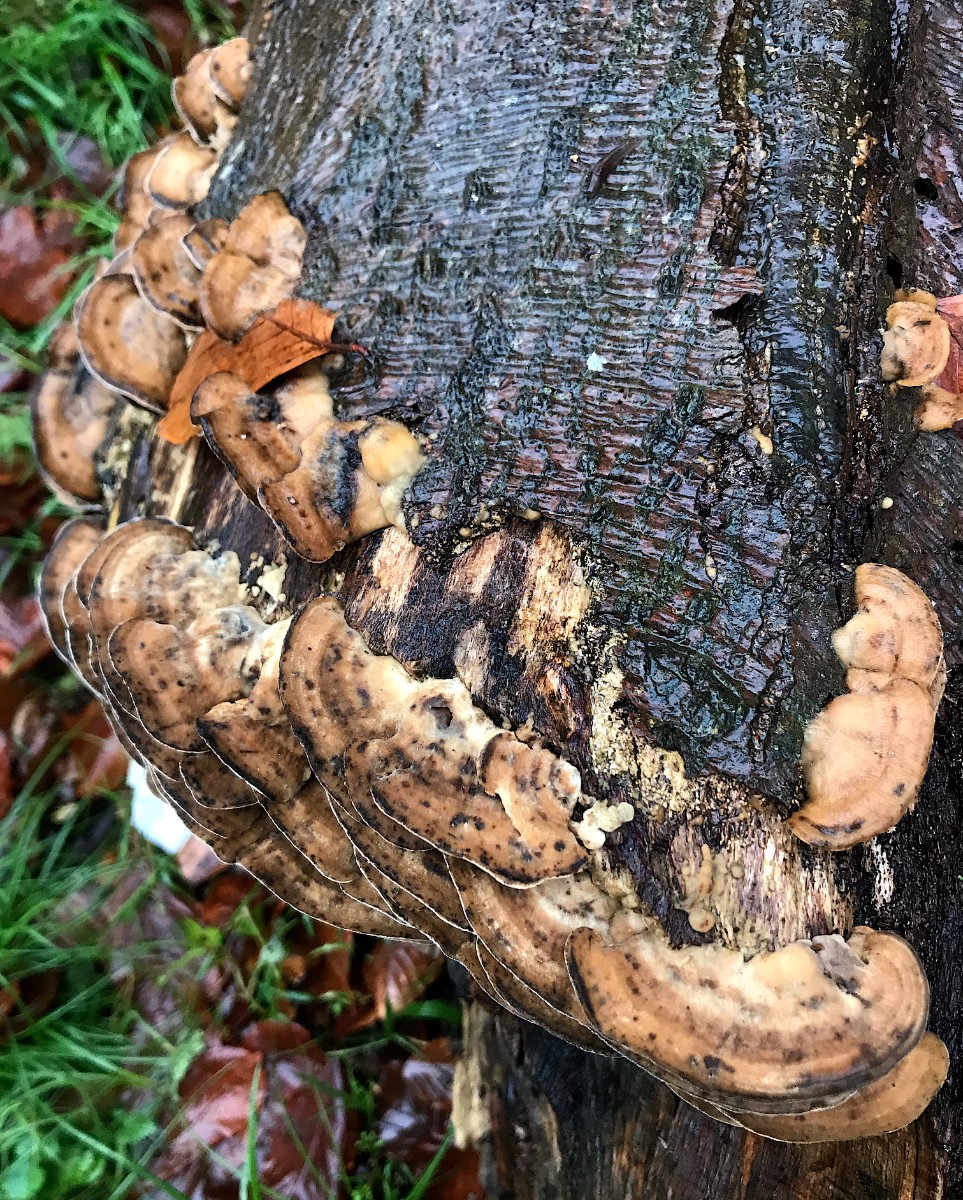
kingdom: Fungi
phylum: Basidiomycota
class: Agaricomycetes
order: Polyporales
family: Phanerochaetaceae
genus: Bjerkandera
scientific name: Bjerkandera adusta
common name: sveden sodporesvamp
